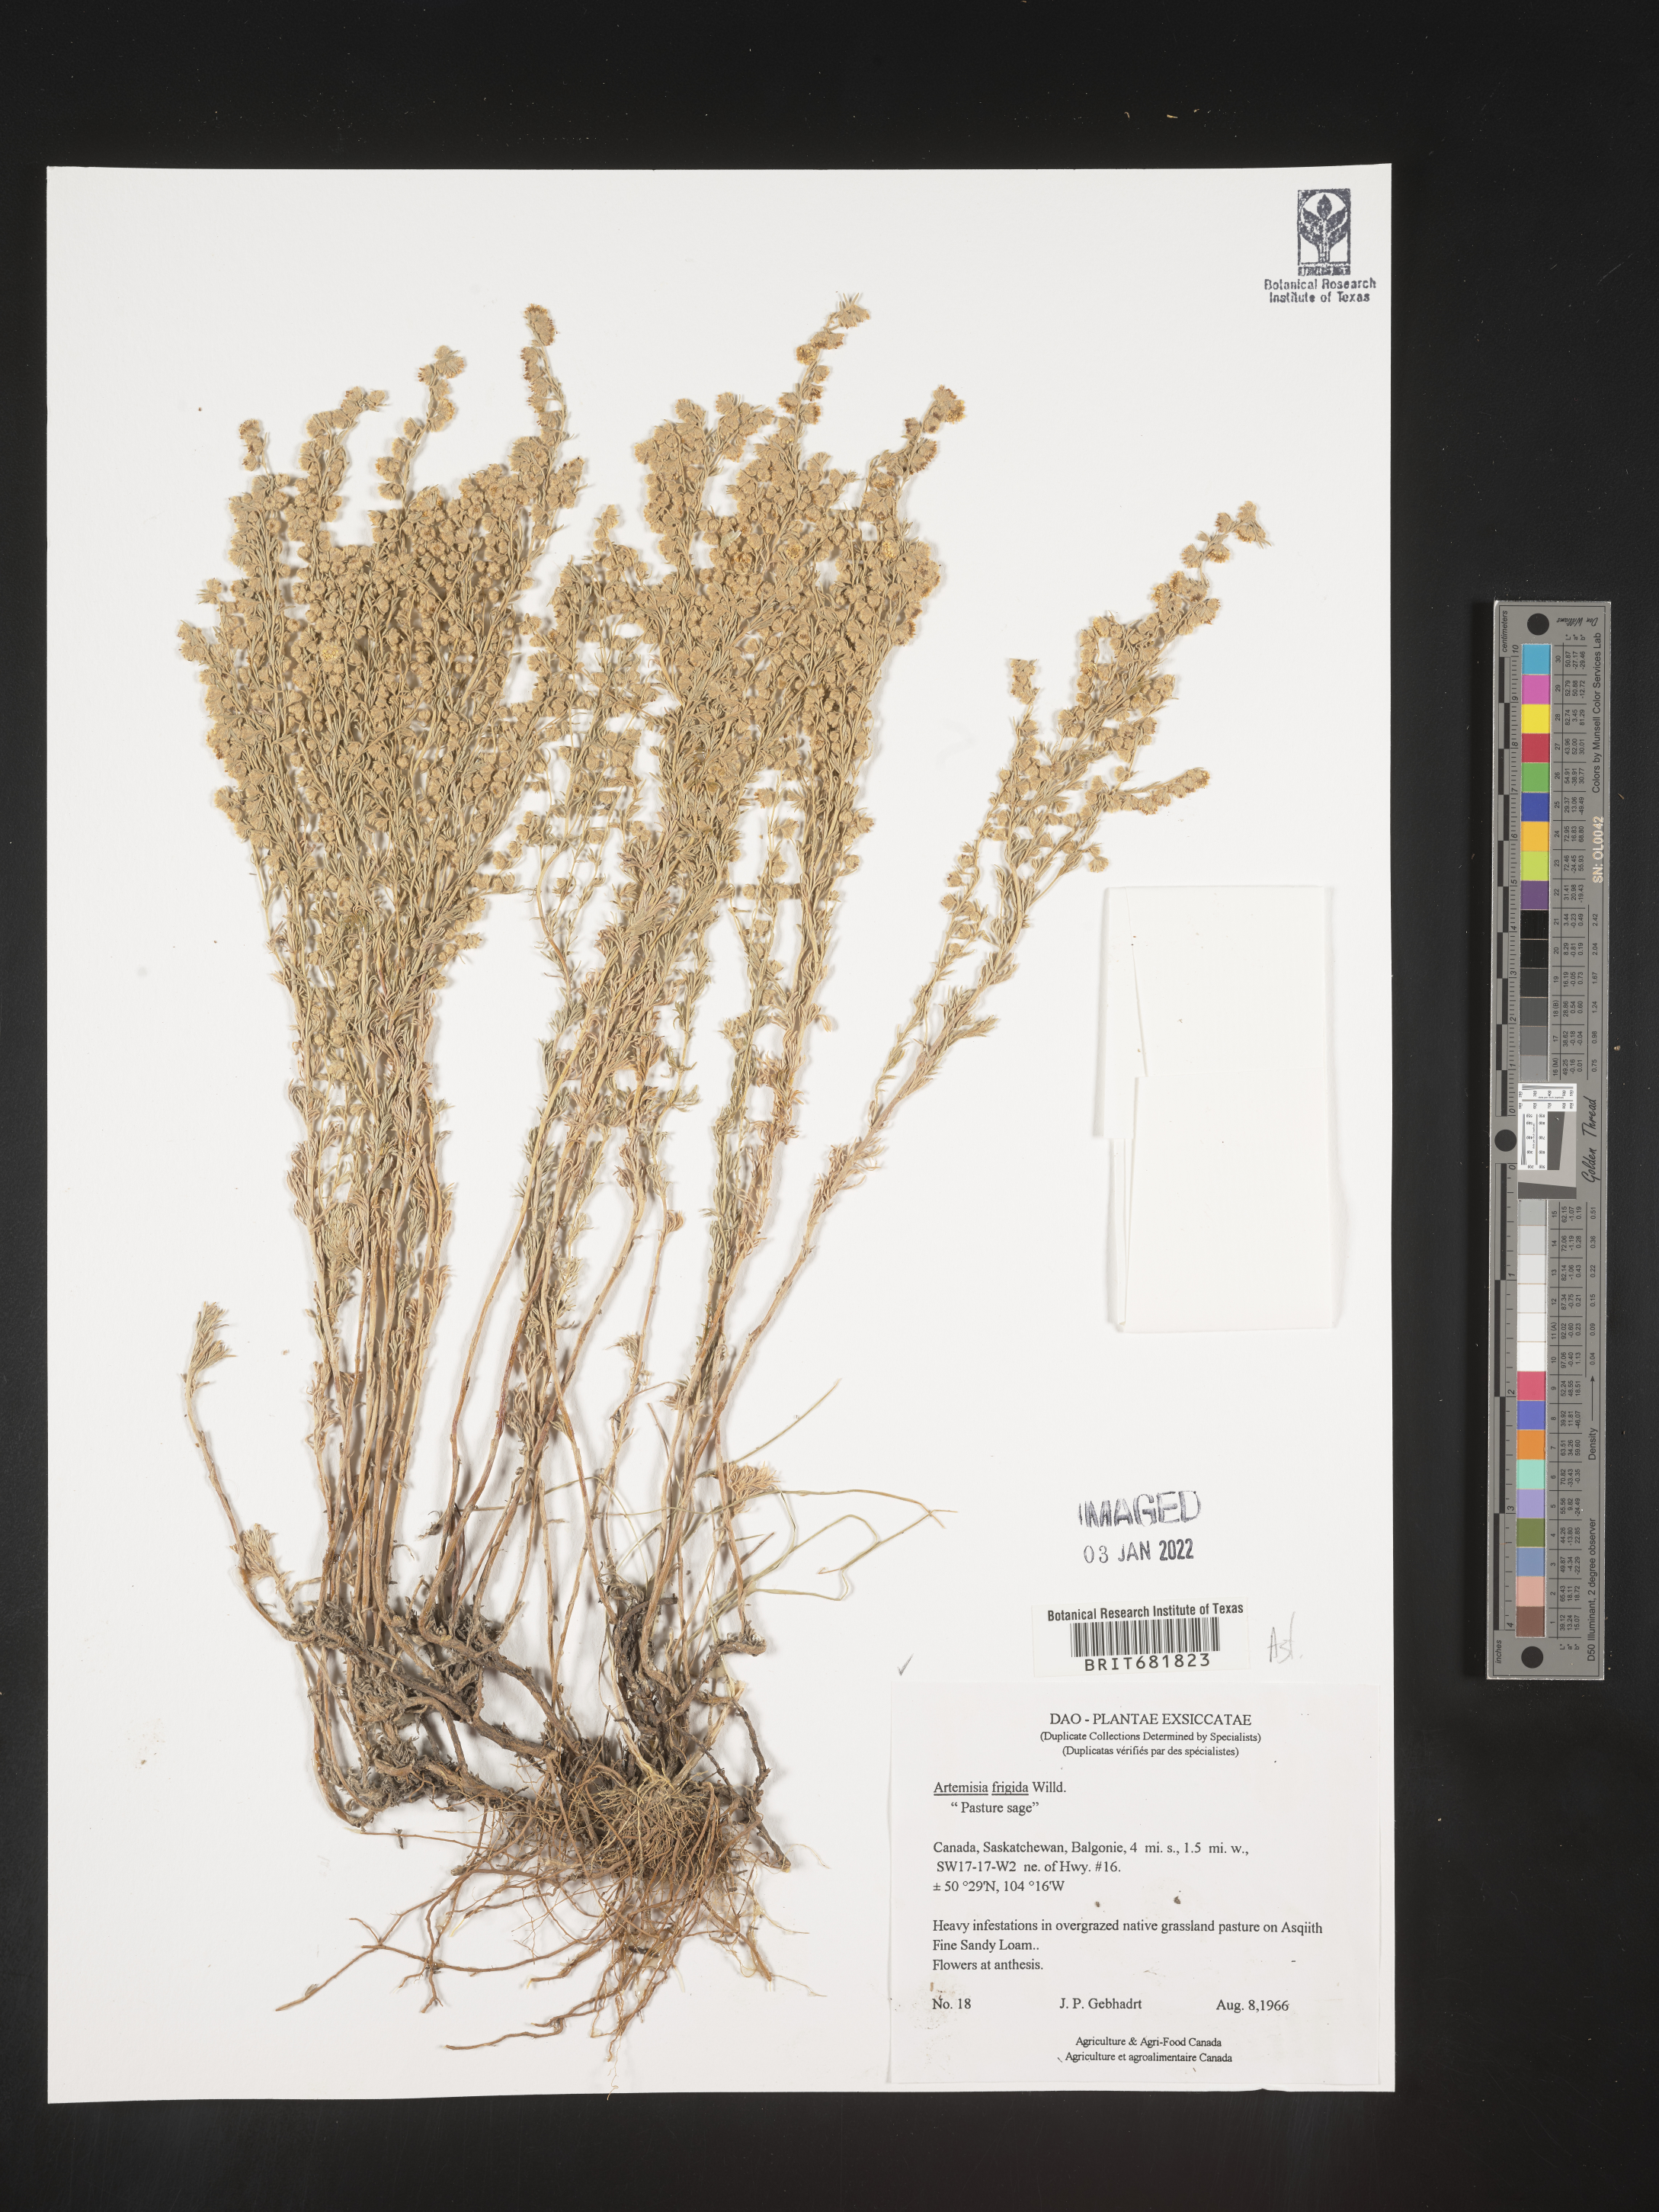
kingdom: Plantae
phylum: Tracheophyta
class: Magnoliopsida
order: Asterales
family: Asteraceae
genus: Artemisia
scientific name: Artemisia frigida
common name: Prairie sagewort
